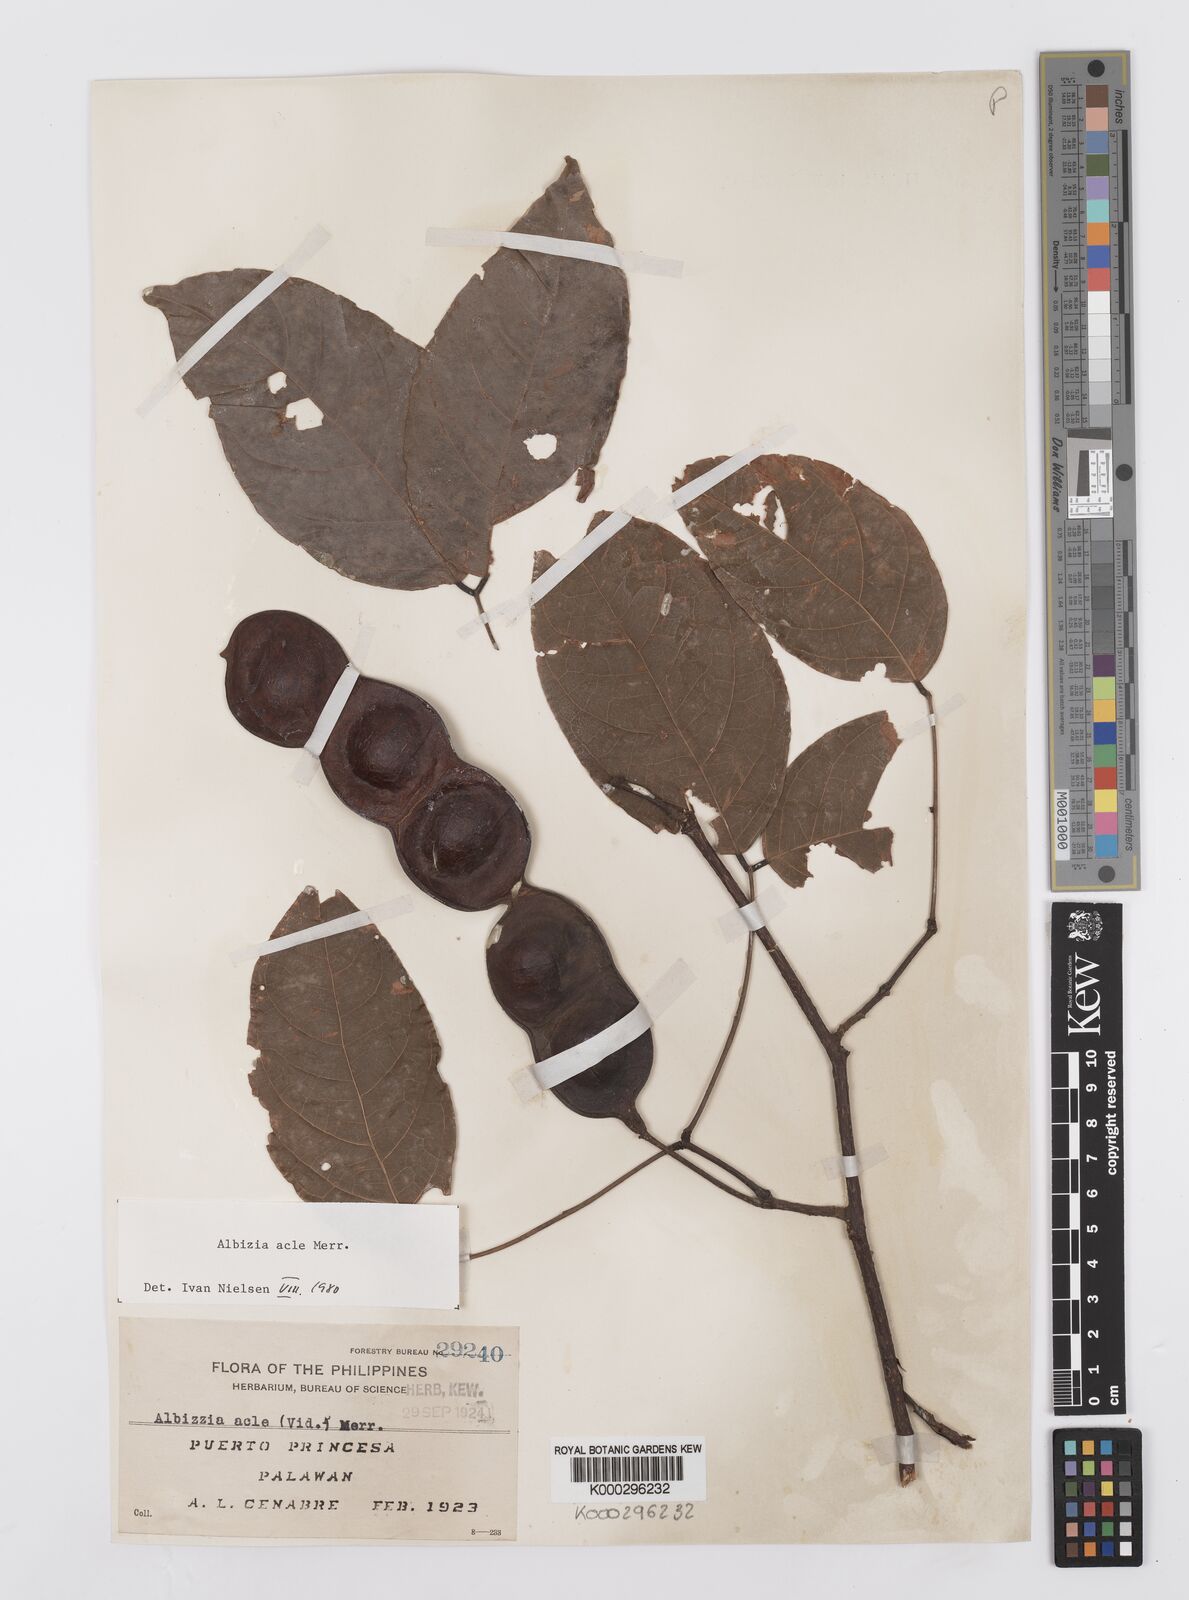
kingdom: Plantae
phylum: Tracheophyta
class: Magnoliopsida
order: Fabales
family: Fabaceae
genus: Albizia
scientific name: Albizia acle
